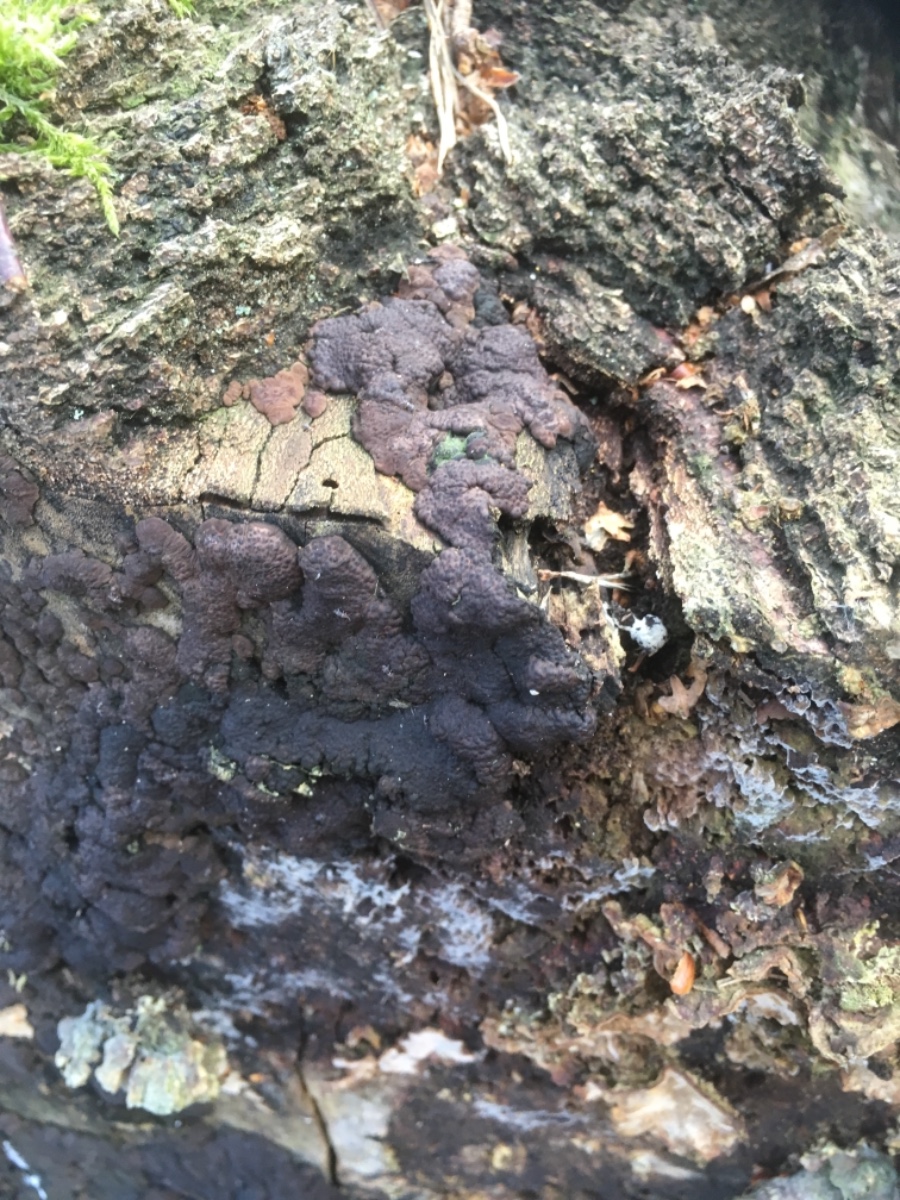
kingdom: Fungi
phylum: Ascomycota
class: Sordariomycetes
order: Xylariales
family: Xylariaceae
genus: Kretzschmaria
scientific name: Kretzschmaria deusta
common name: stor kulsvamp
